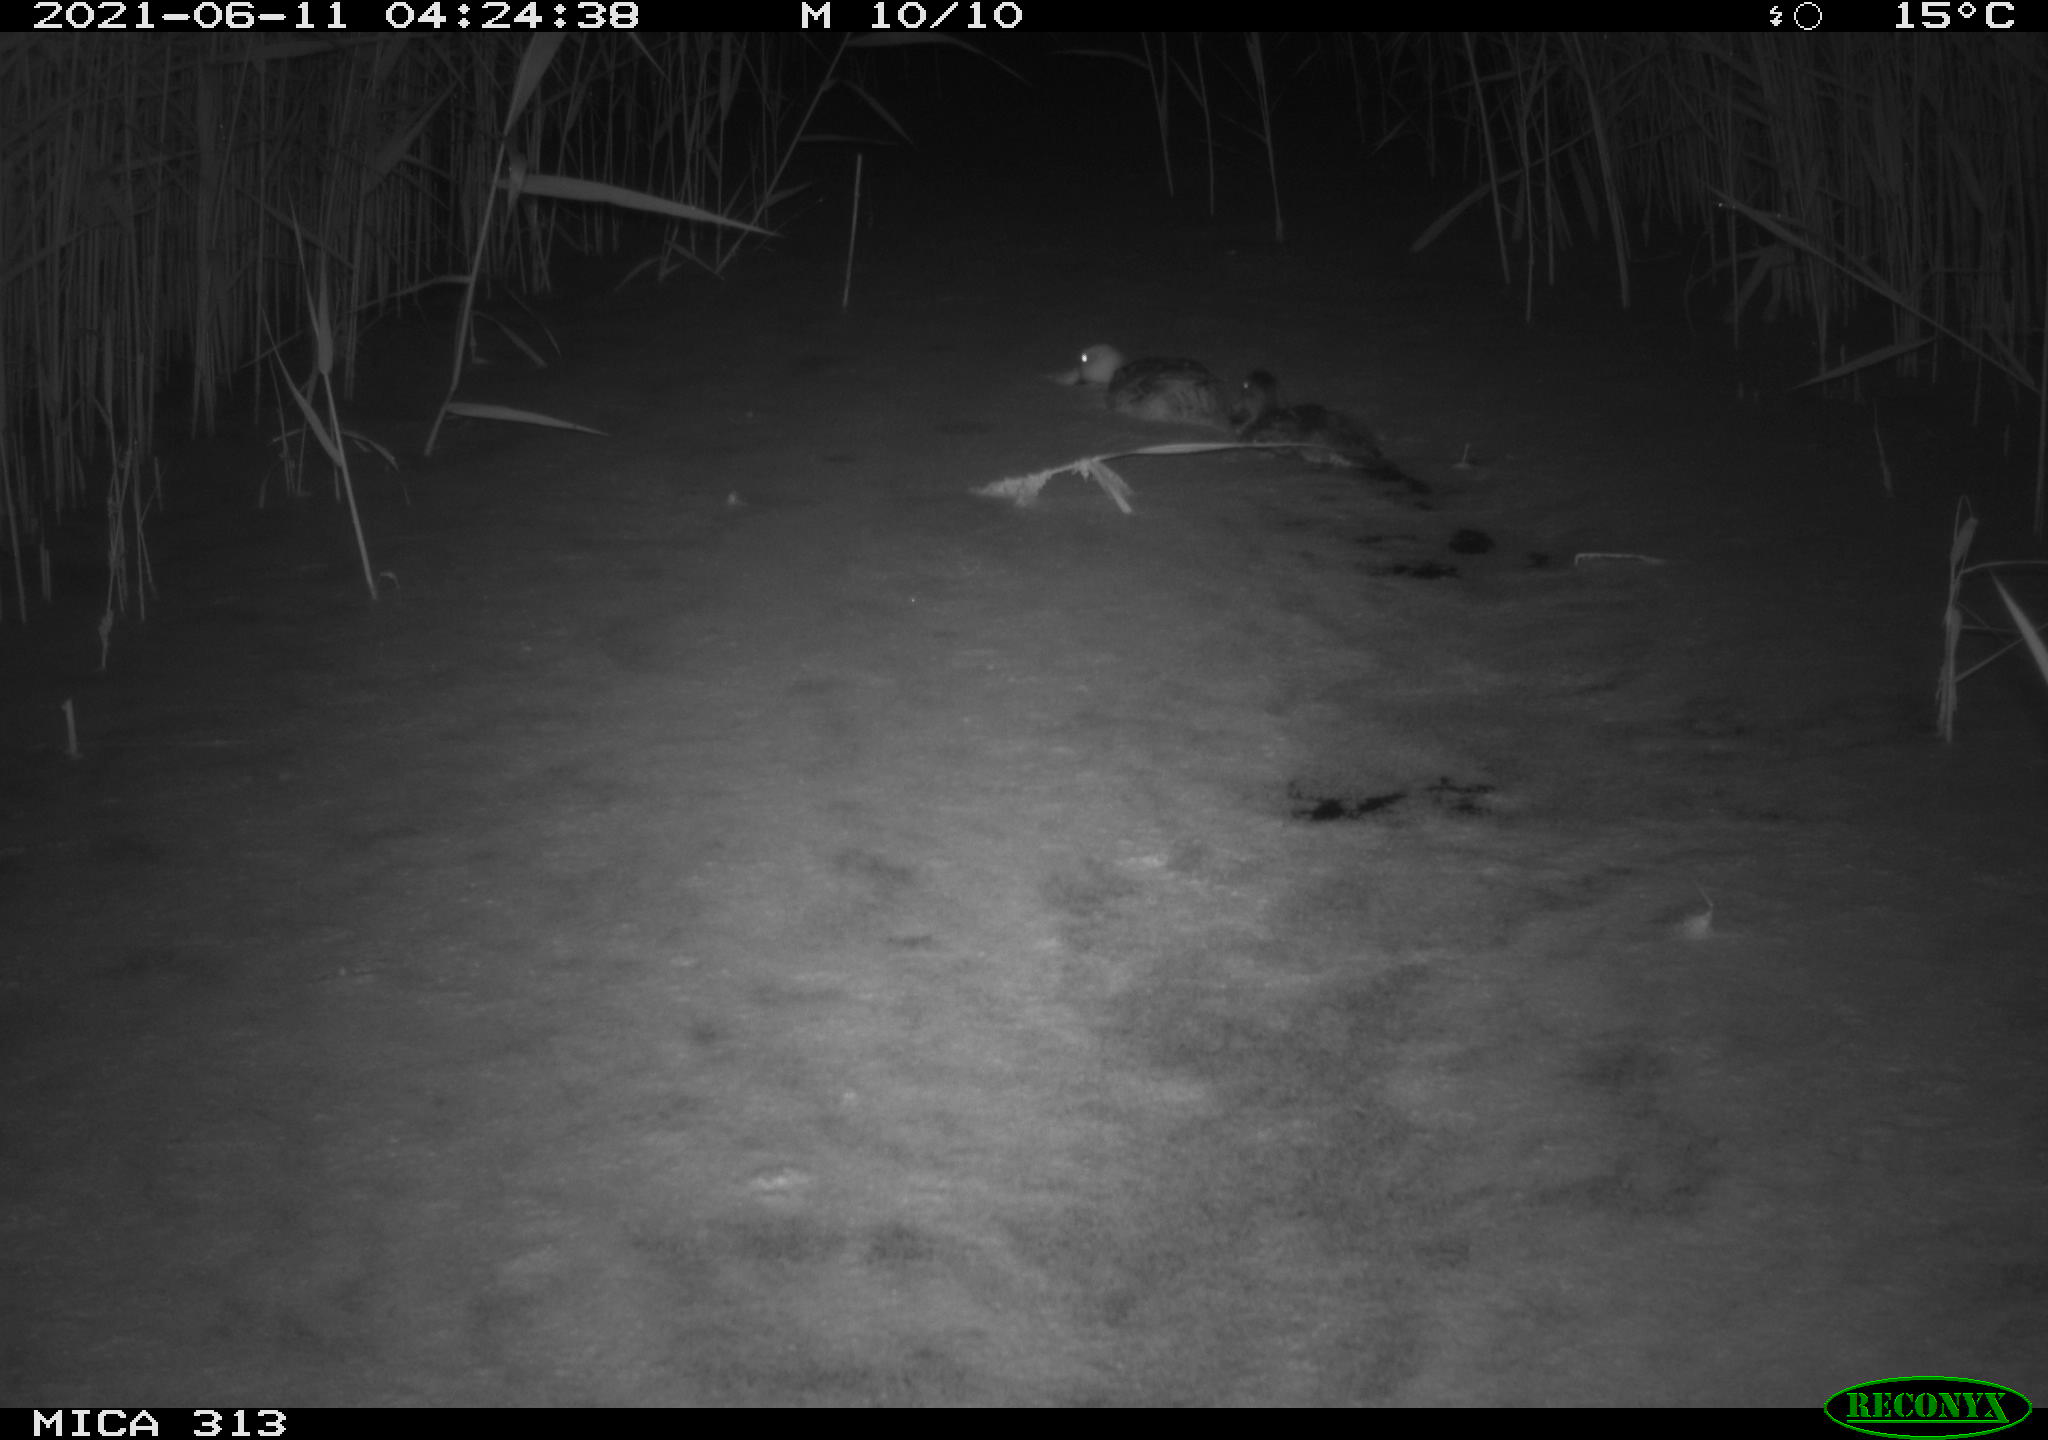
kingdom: Animalia
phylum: Chordata
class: Aves
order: Anseriformes
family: Anatidae
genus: Anas
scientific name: Anas
